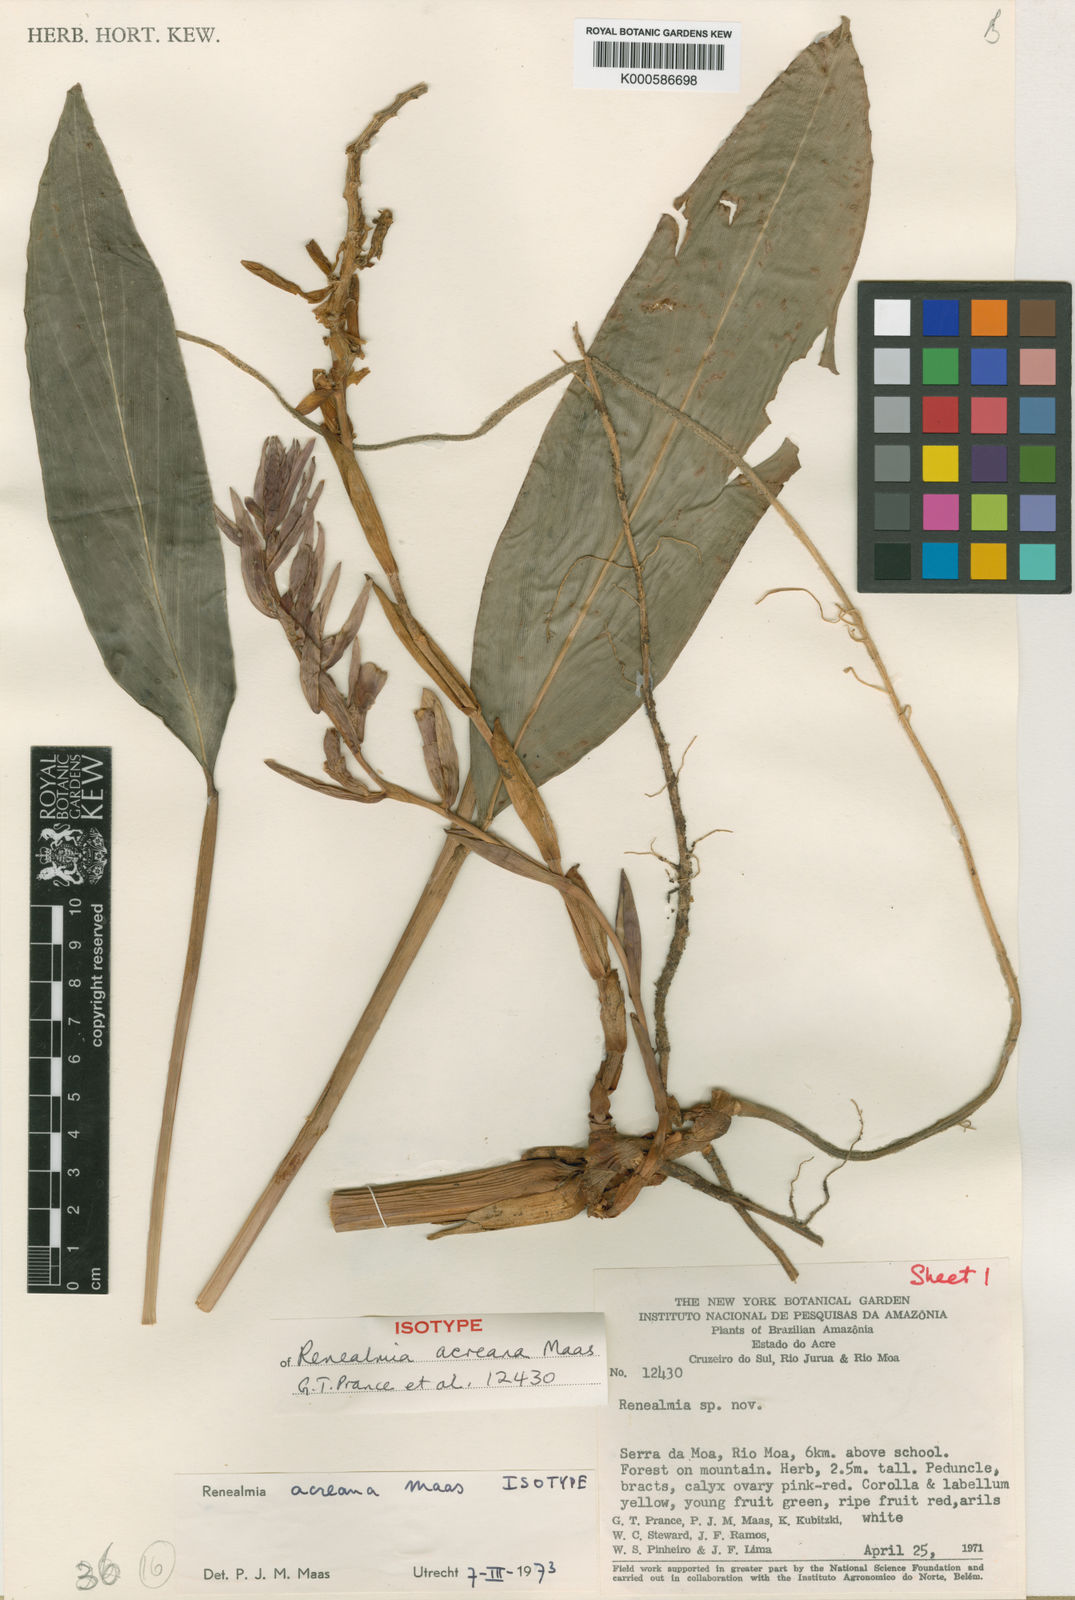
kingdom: Plantae
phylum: Tracheophyta
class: Liliopsida
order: Zingiberales
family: Zingiberaceae
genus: Renealmia
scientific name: Renealmia acreana
